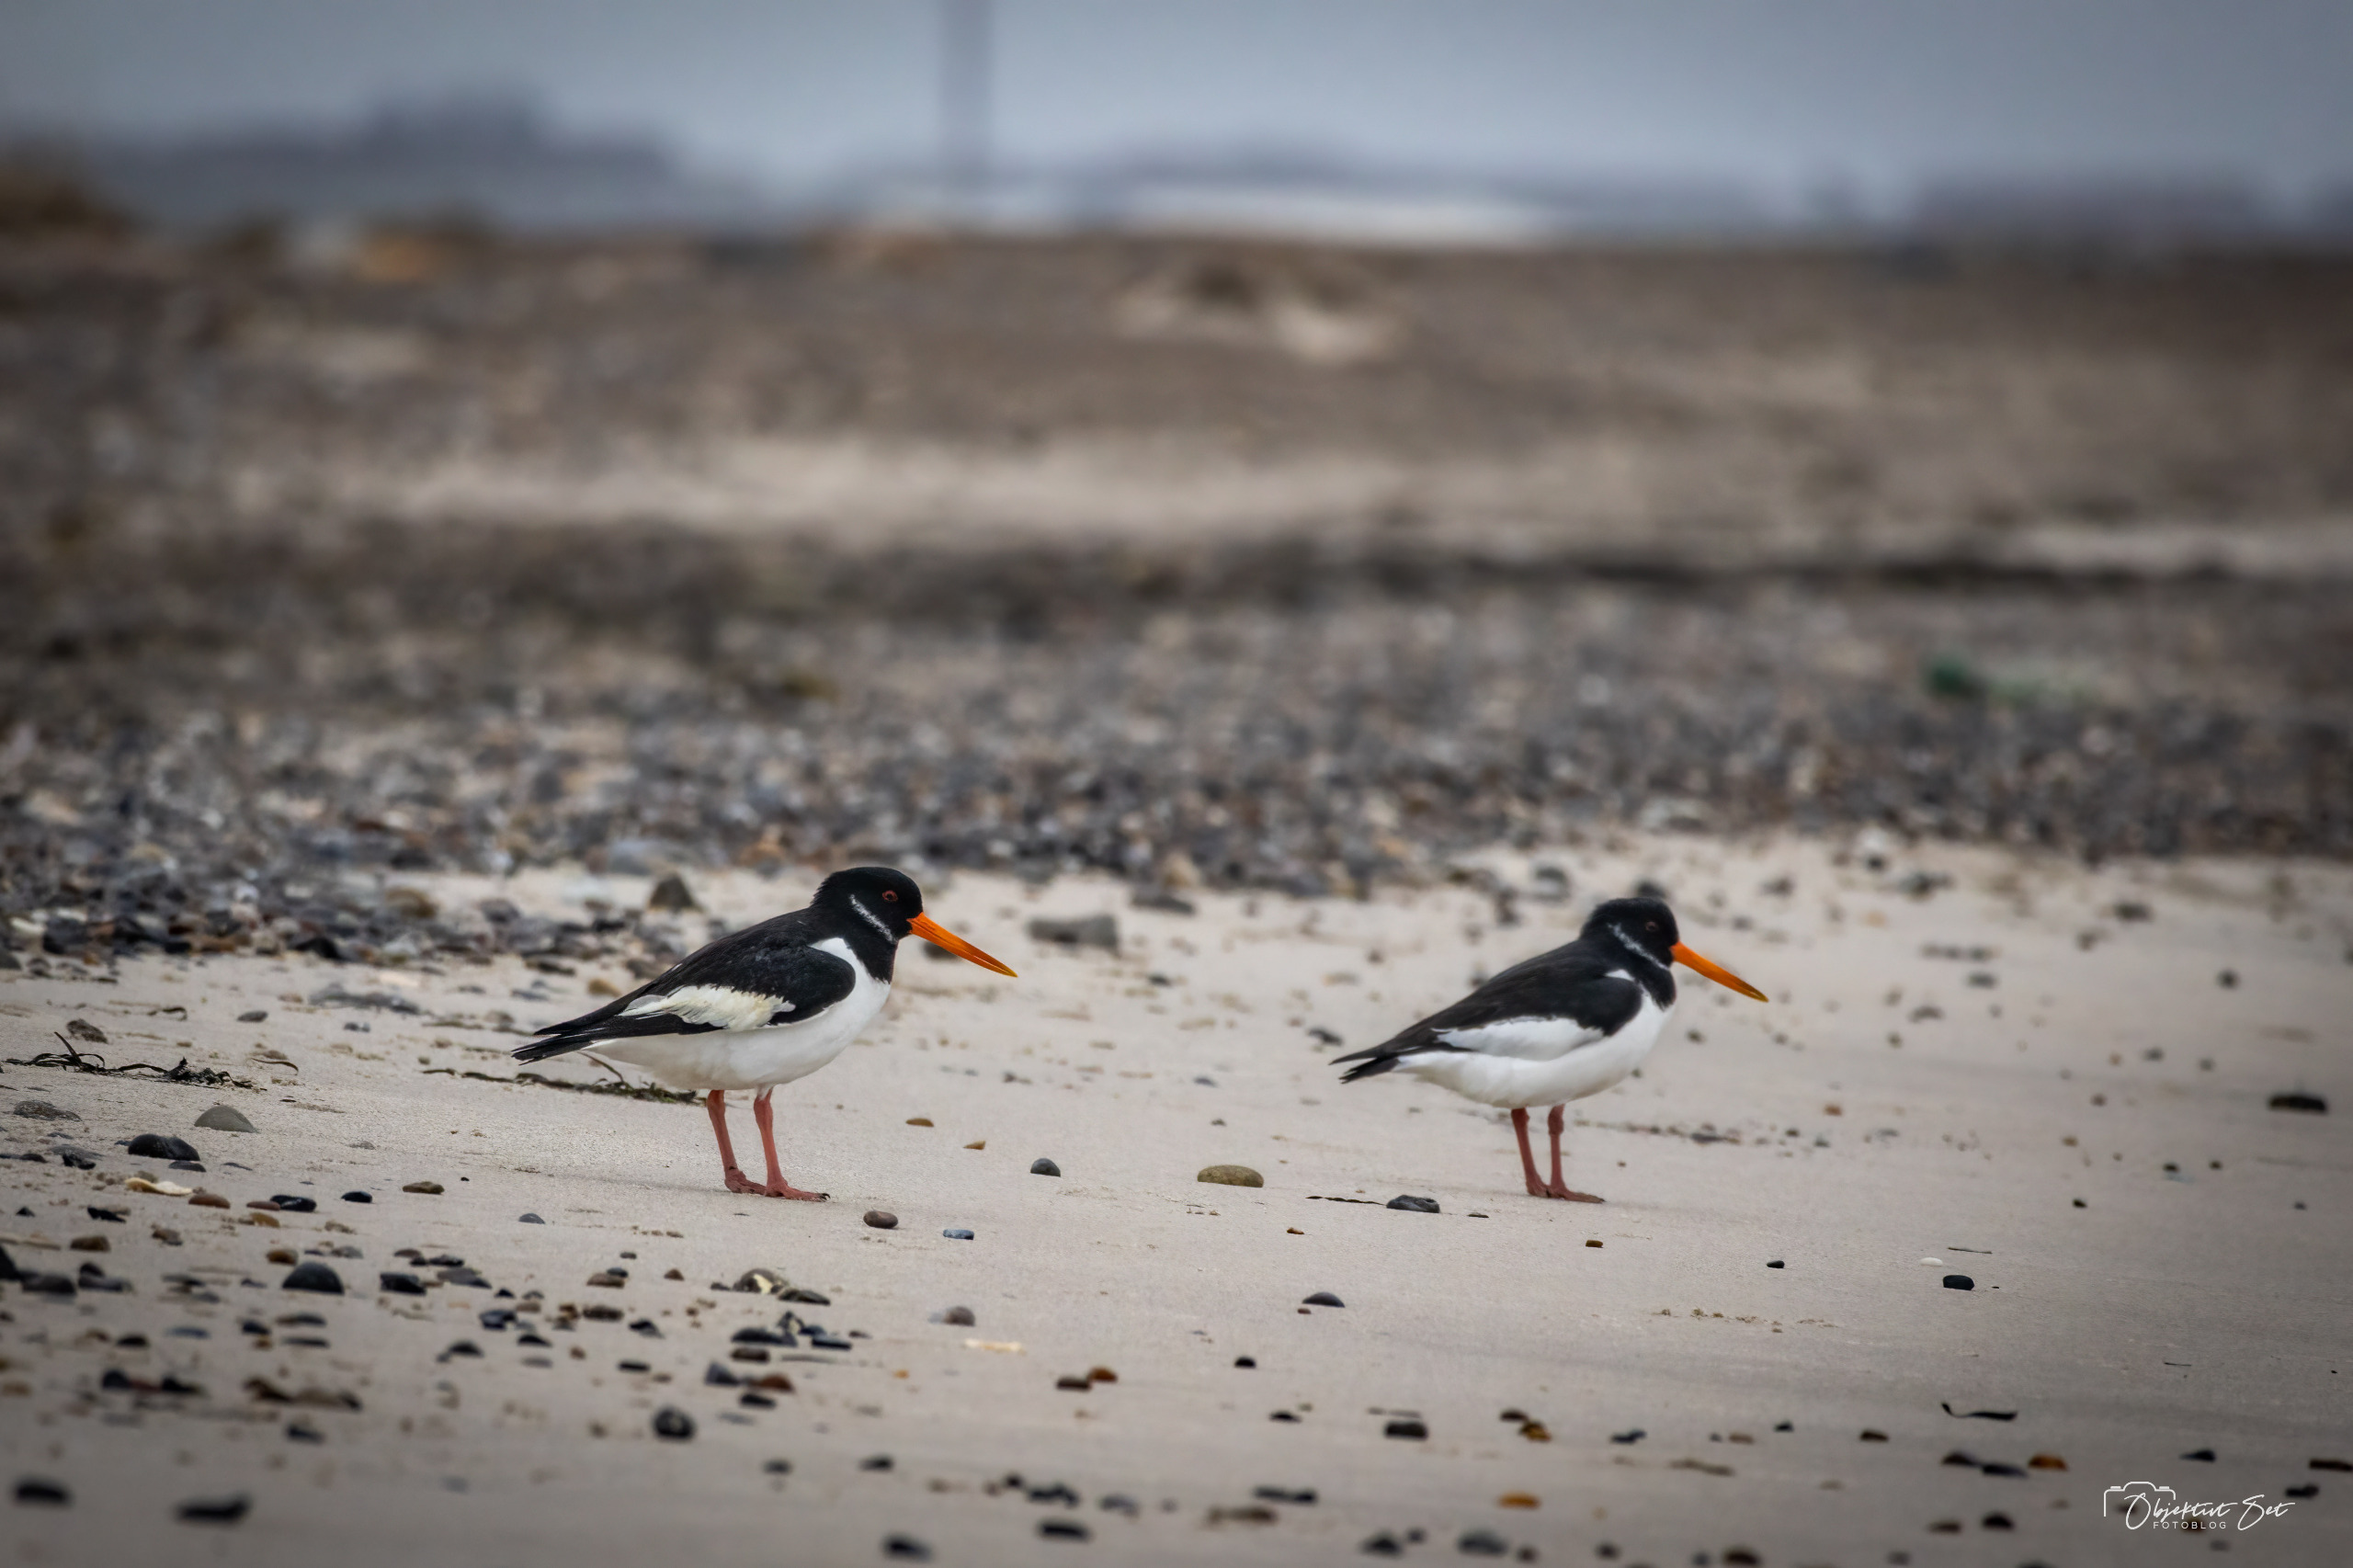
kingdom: Animalia
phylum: Chordata
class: Aves
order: Charadriiformes
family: Haematopodidae
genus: Haematopus
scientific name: Haematopus ostralegus
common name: Strandskade
